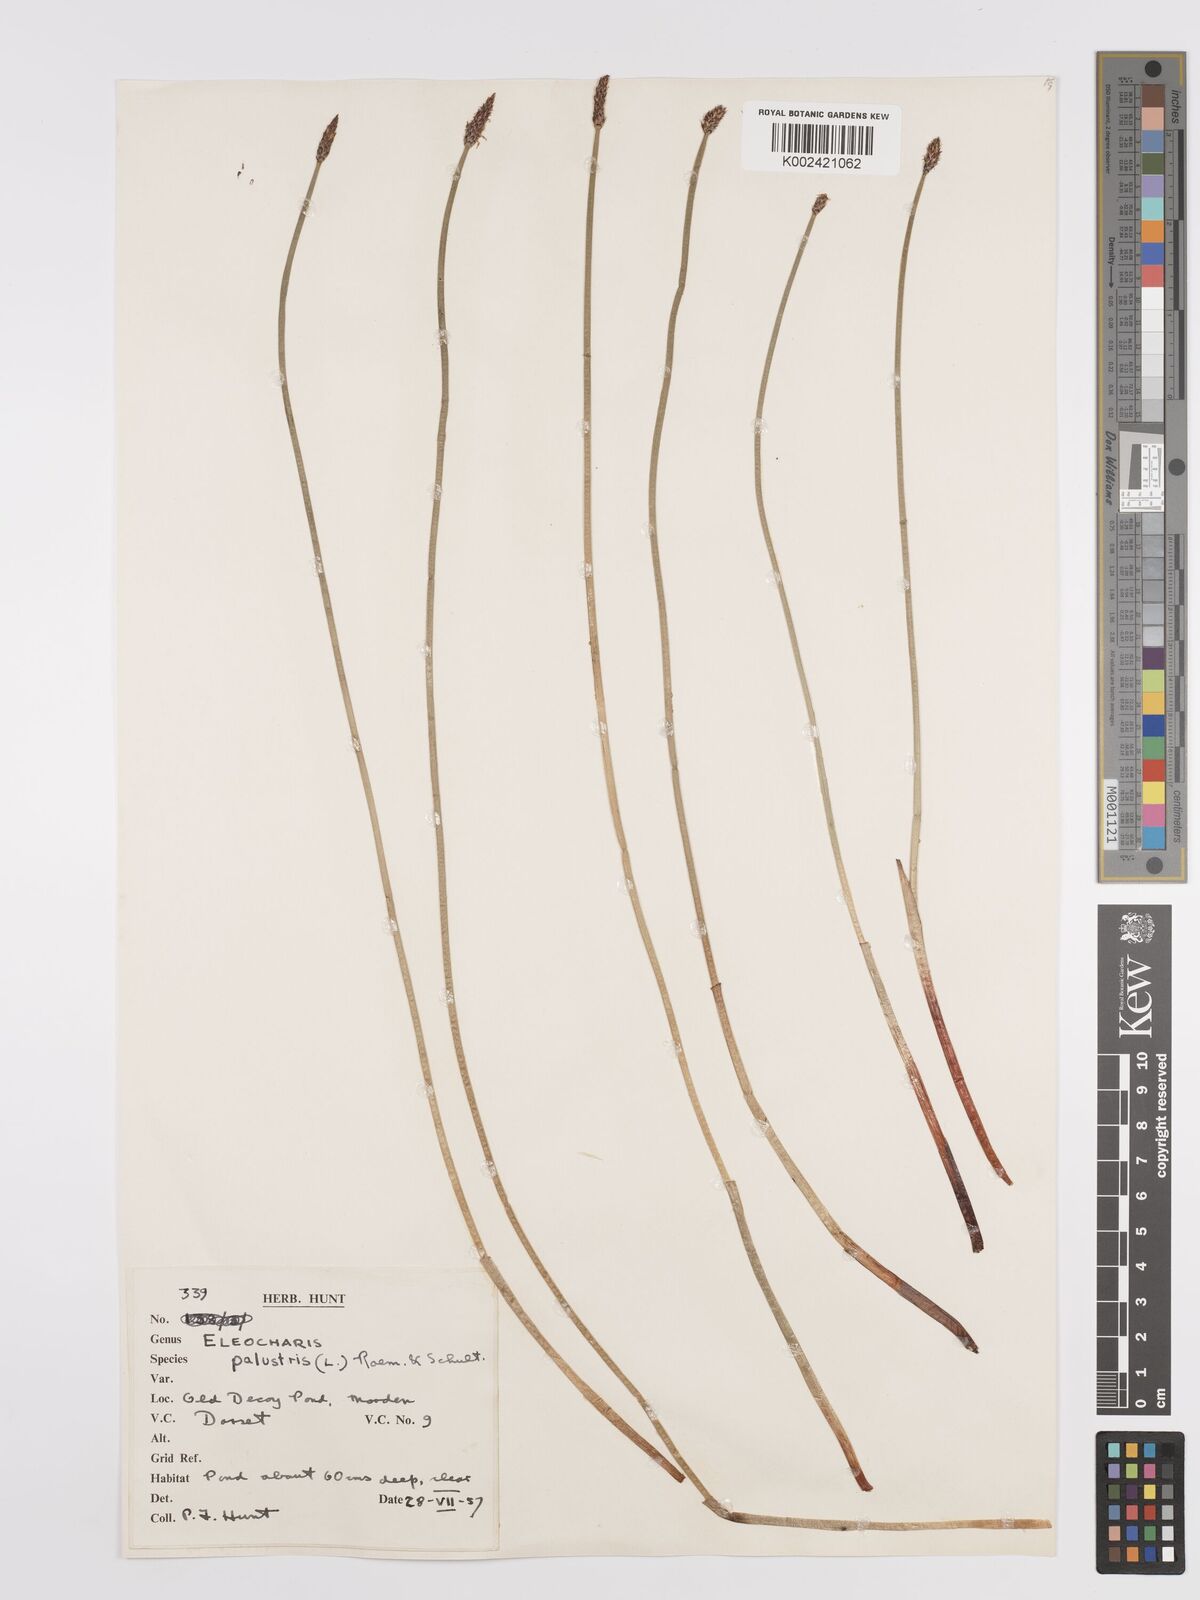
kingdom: Plantae
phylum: Tracheophyta
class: Liliopsida
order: Poales
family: Cyperaceae
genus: Eleocharis
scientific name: Eleocharis palustris
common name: Common spike-rush
